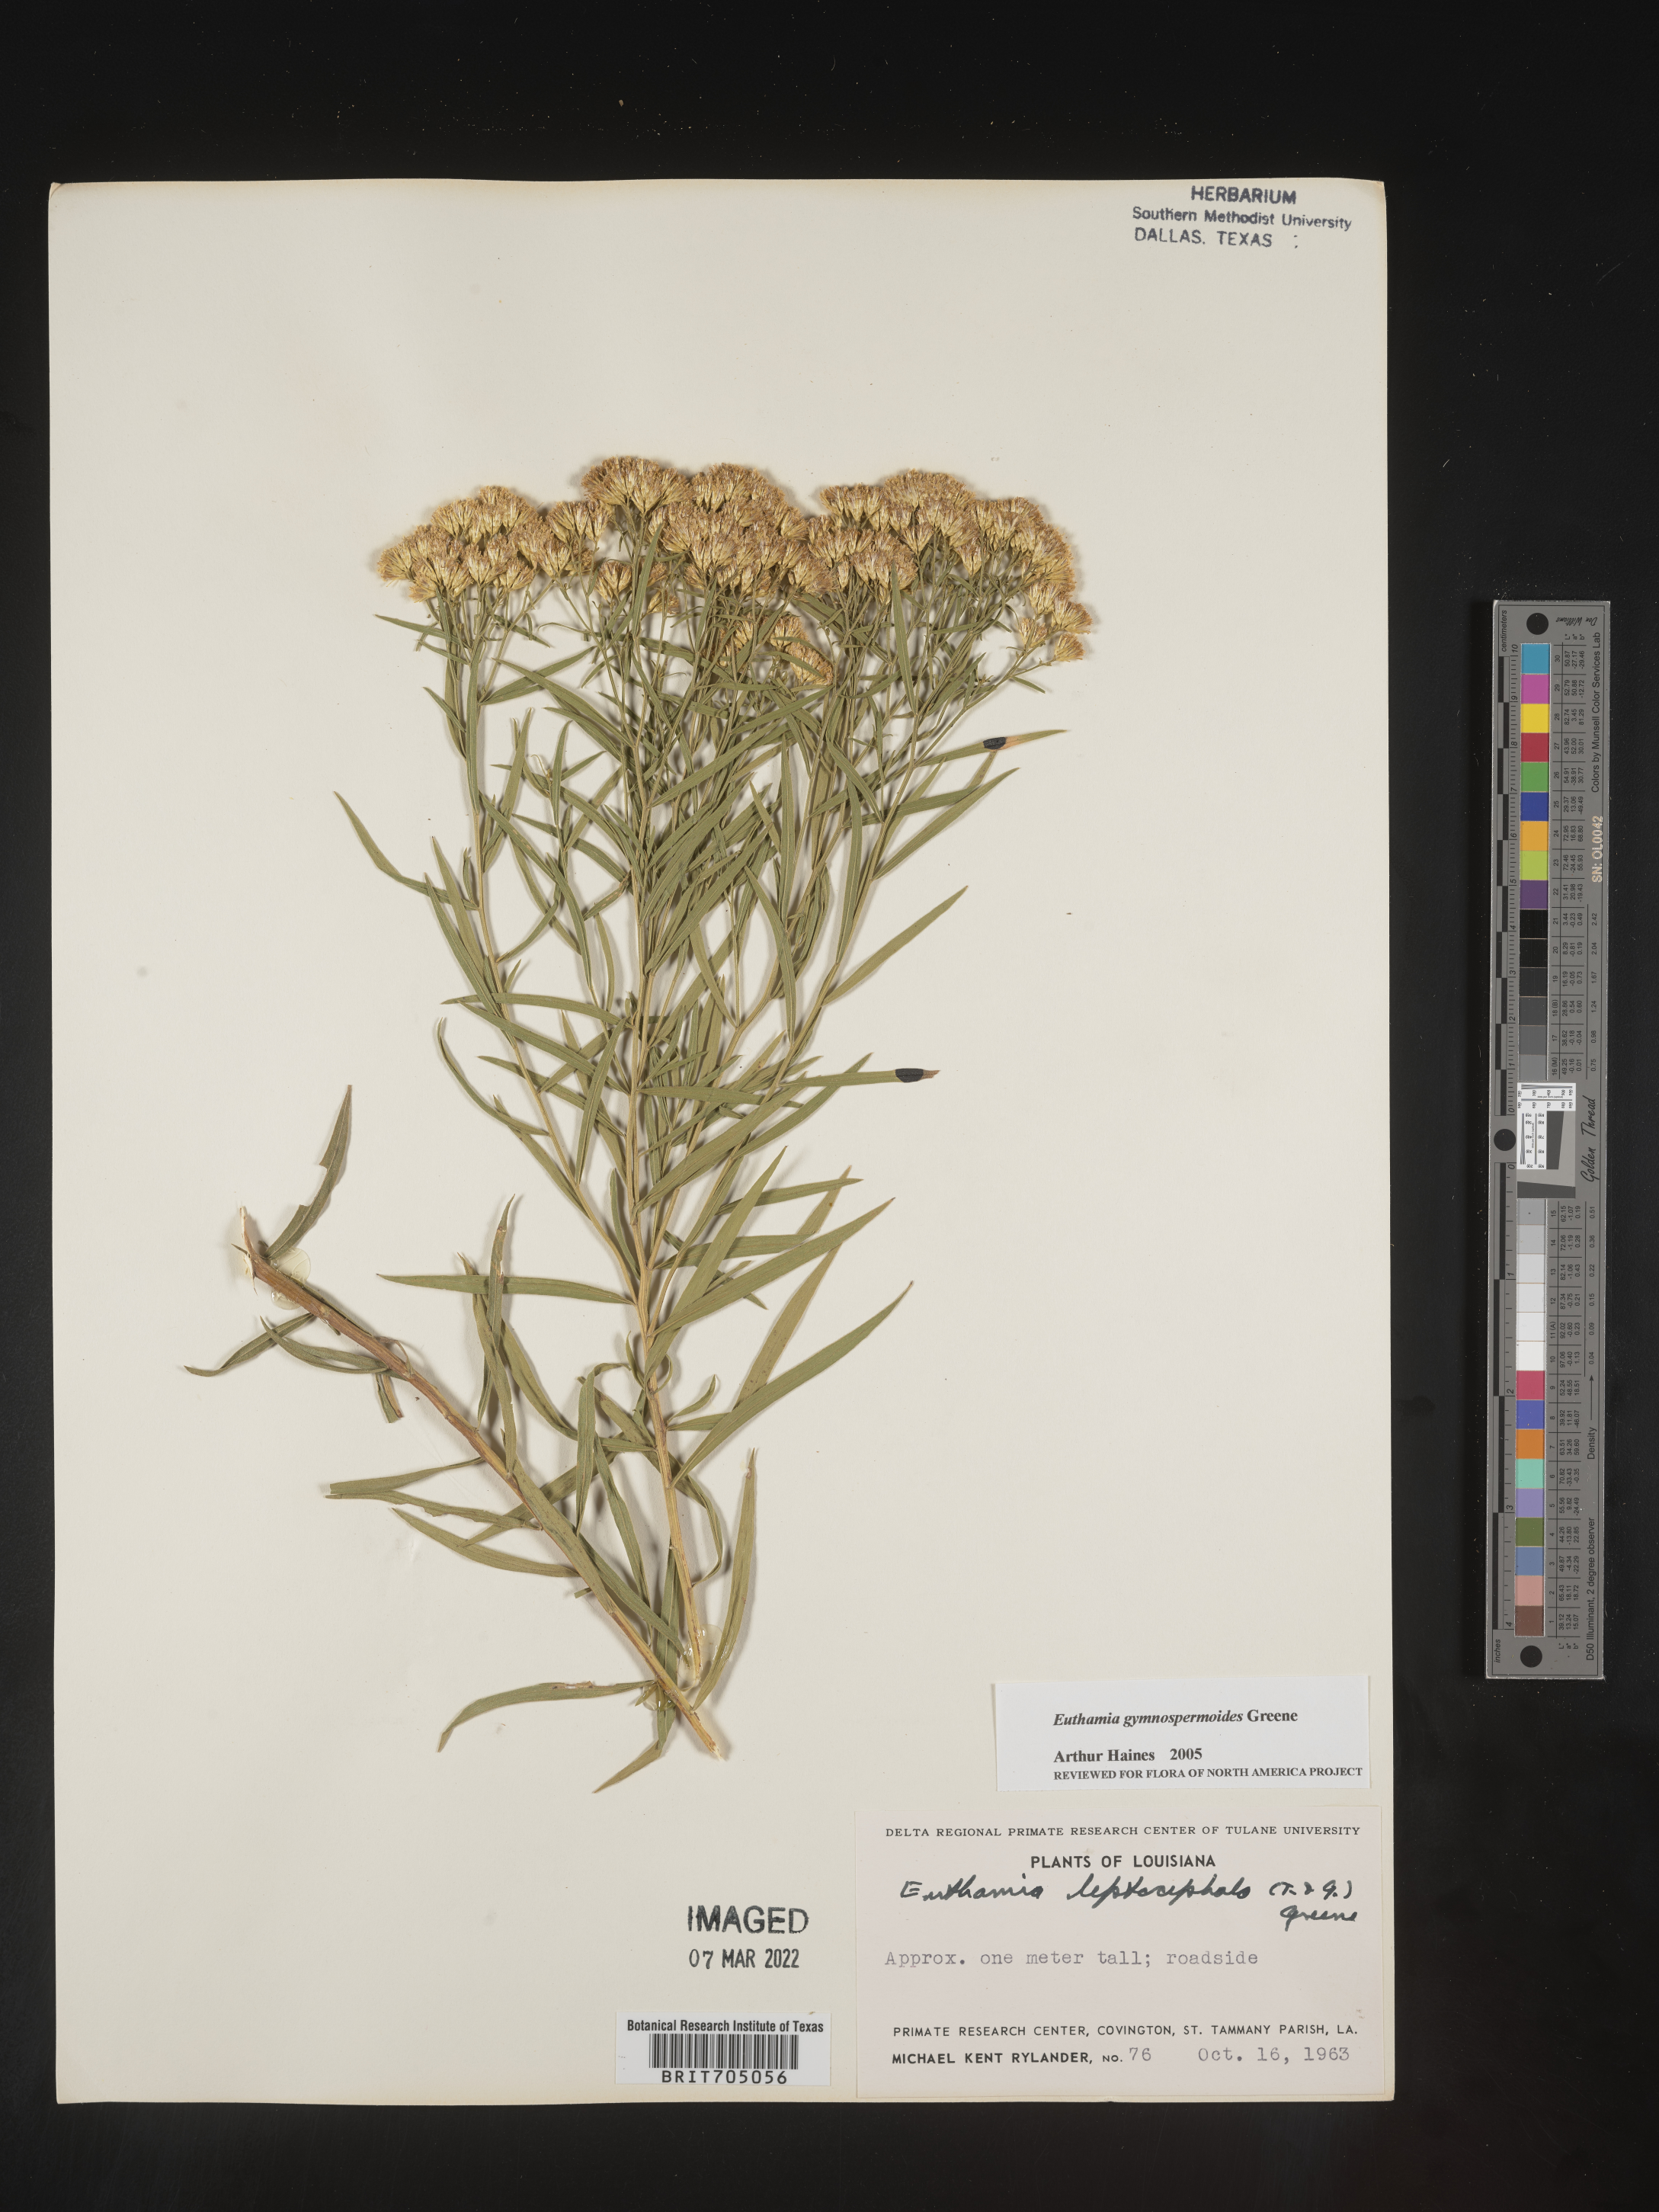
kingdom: Plantae
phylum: Tracheophyta
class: Magnoliopsida
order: Asterales
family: Asteraceae
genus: Euthamia
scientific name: Euthamia gymnospermoides
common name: Great plains goldentop
